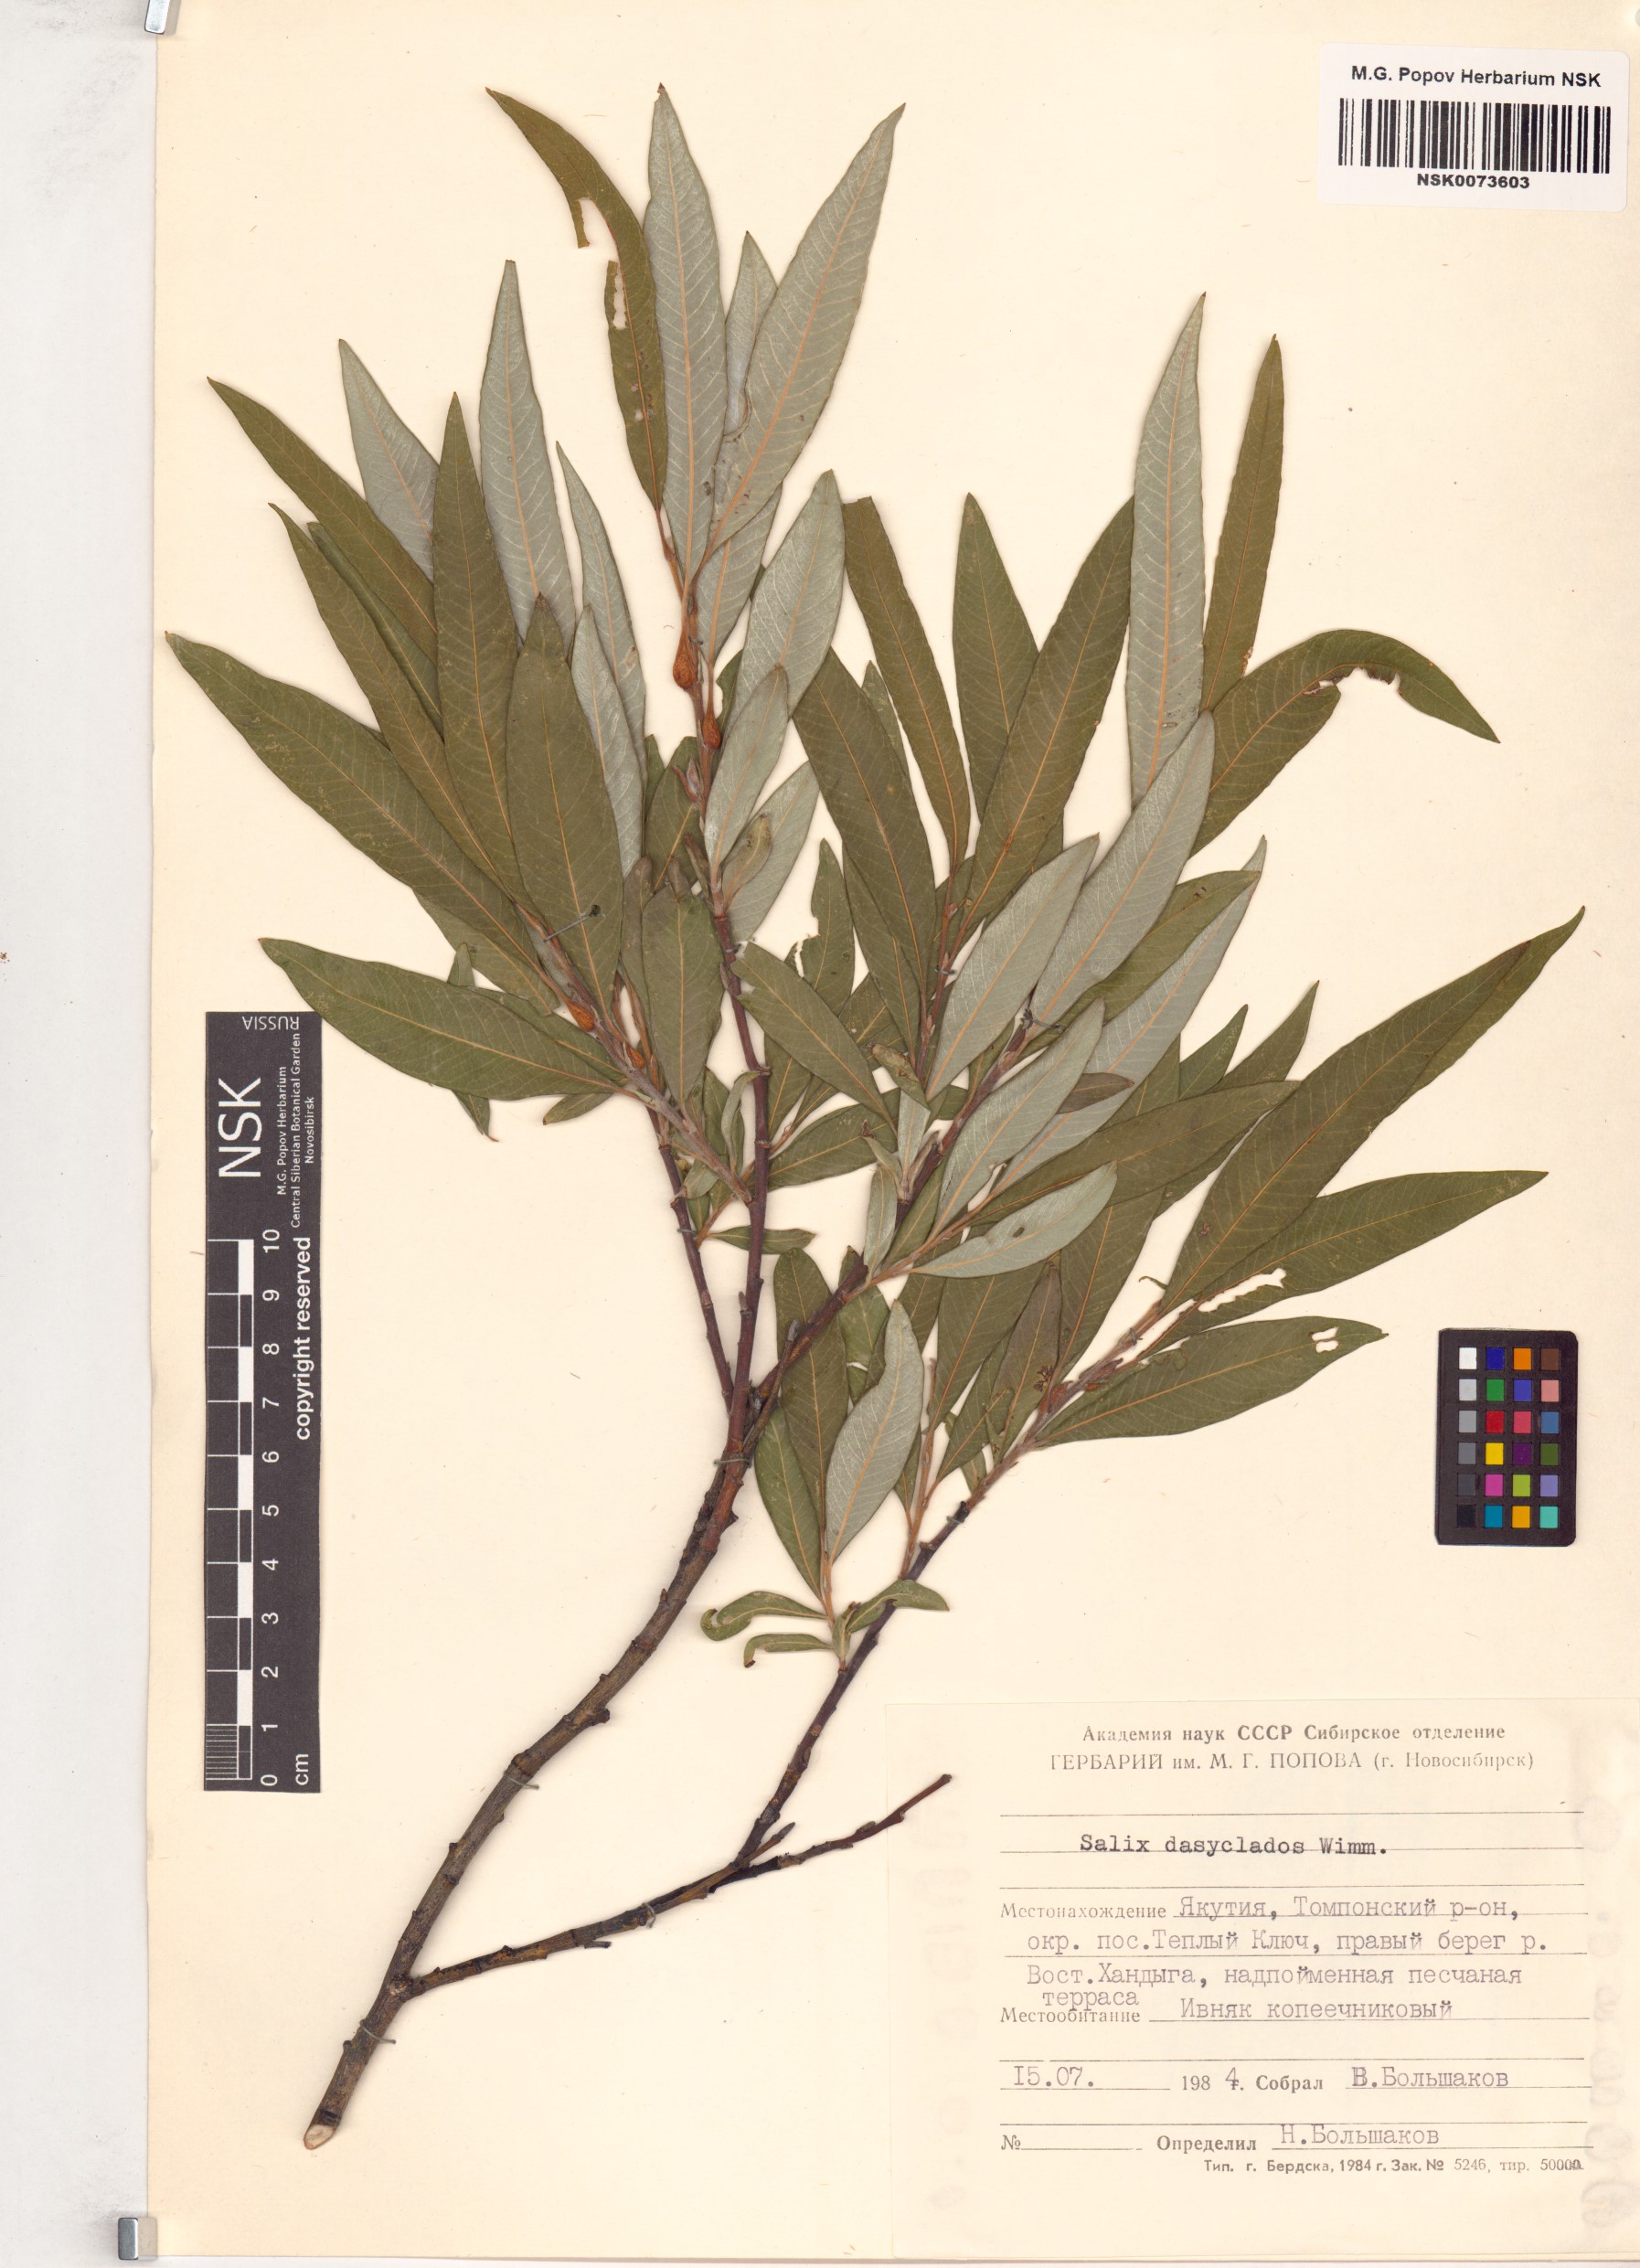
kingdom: Plantae
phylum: Tracheophyta
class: Magnoliopsida
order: Malpighiales
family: Salicaceae
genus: Salix
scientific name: Salix gmelinii
